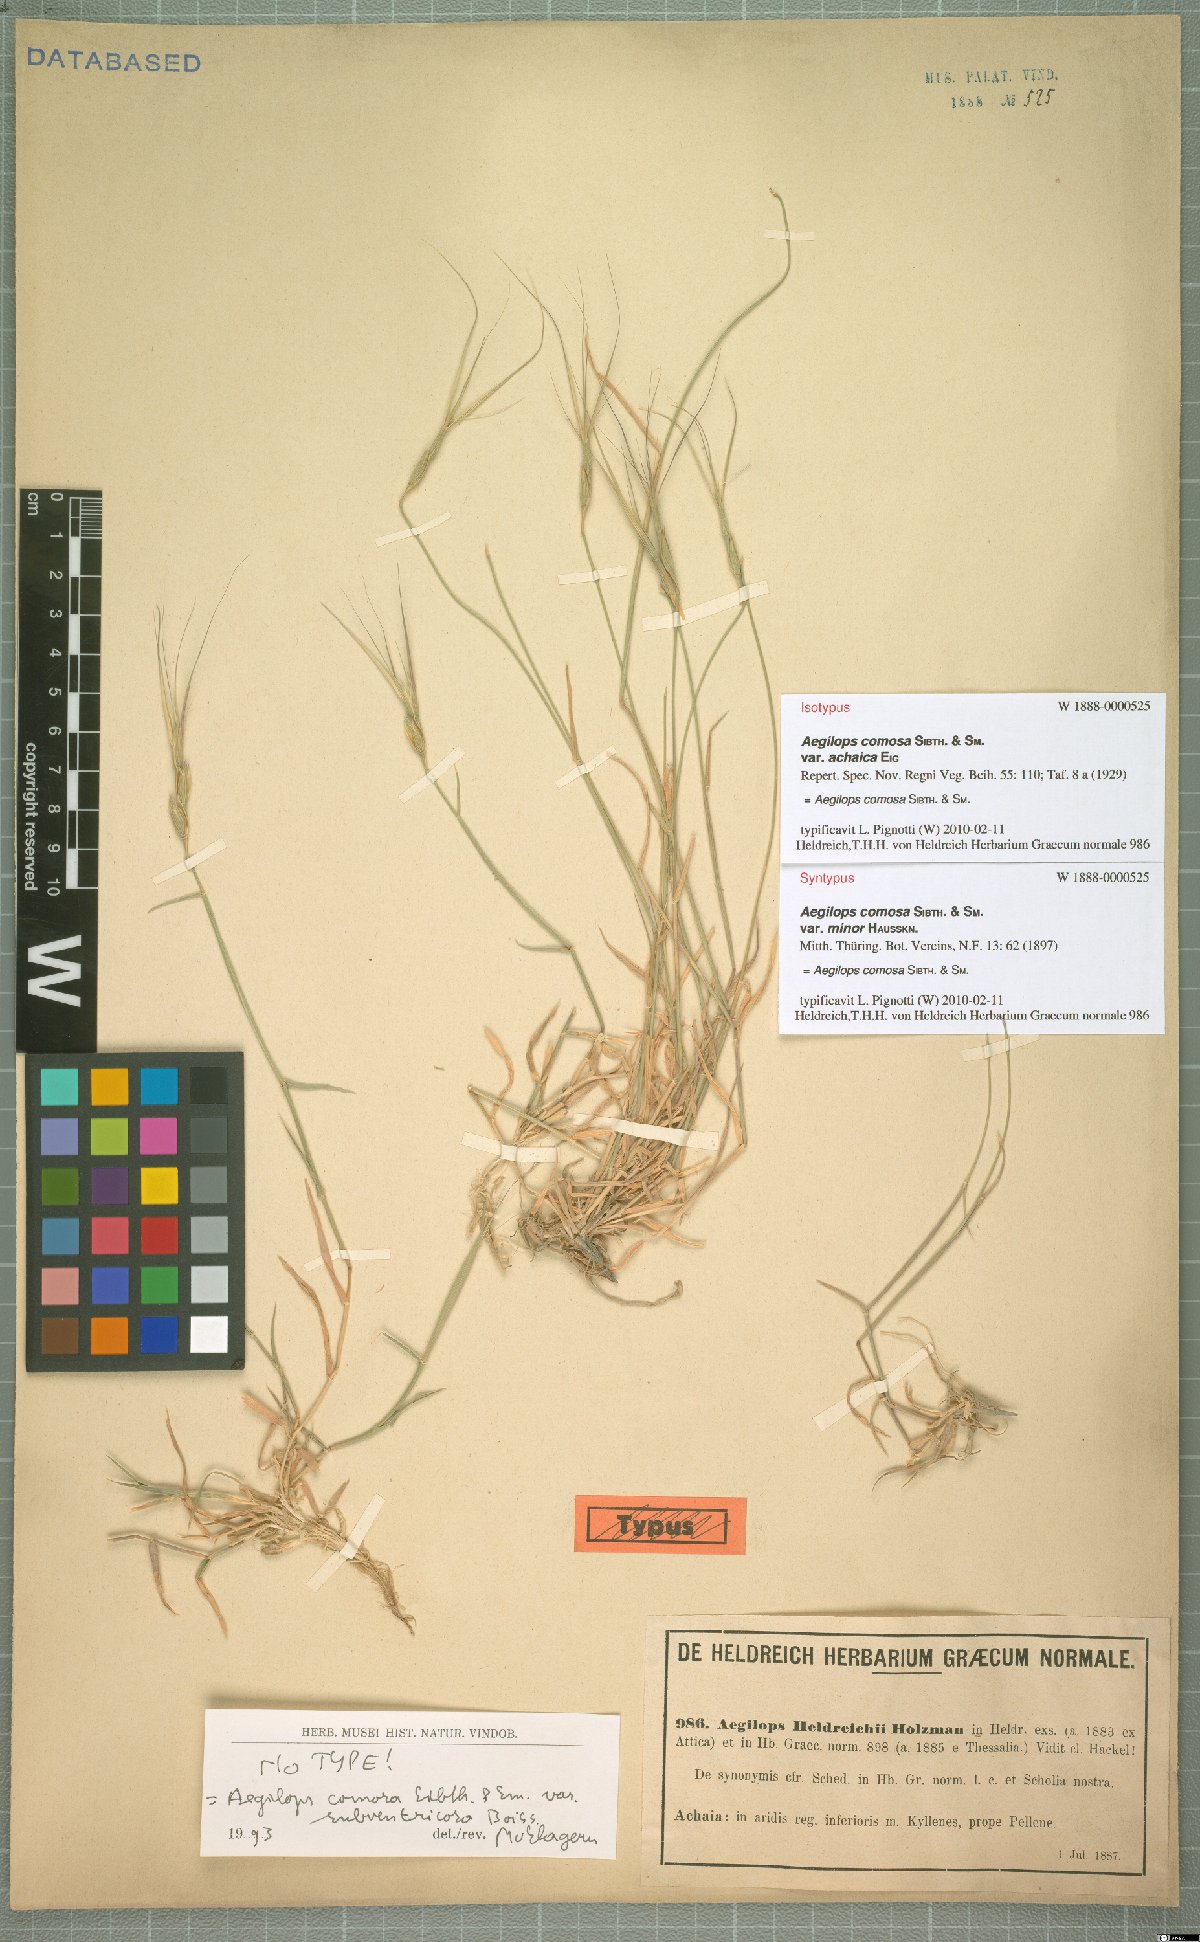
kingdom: Plantae
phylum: Tracheophyta
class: Liliopsida
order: Poales
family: Poaceae
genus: Aegilops
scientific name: Aegilops comosa
